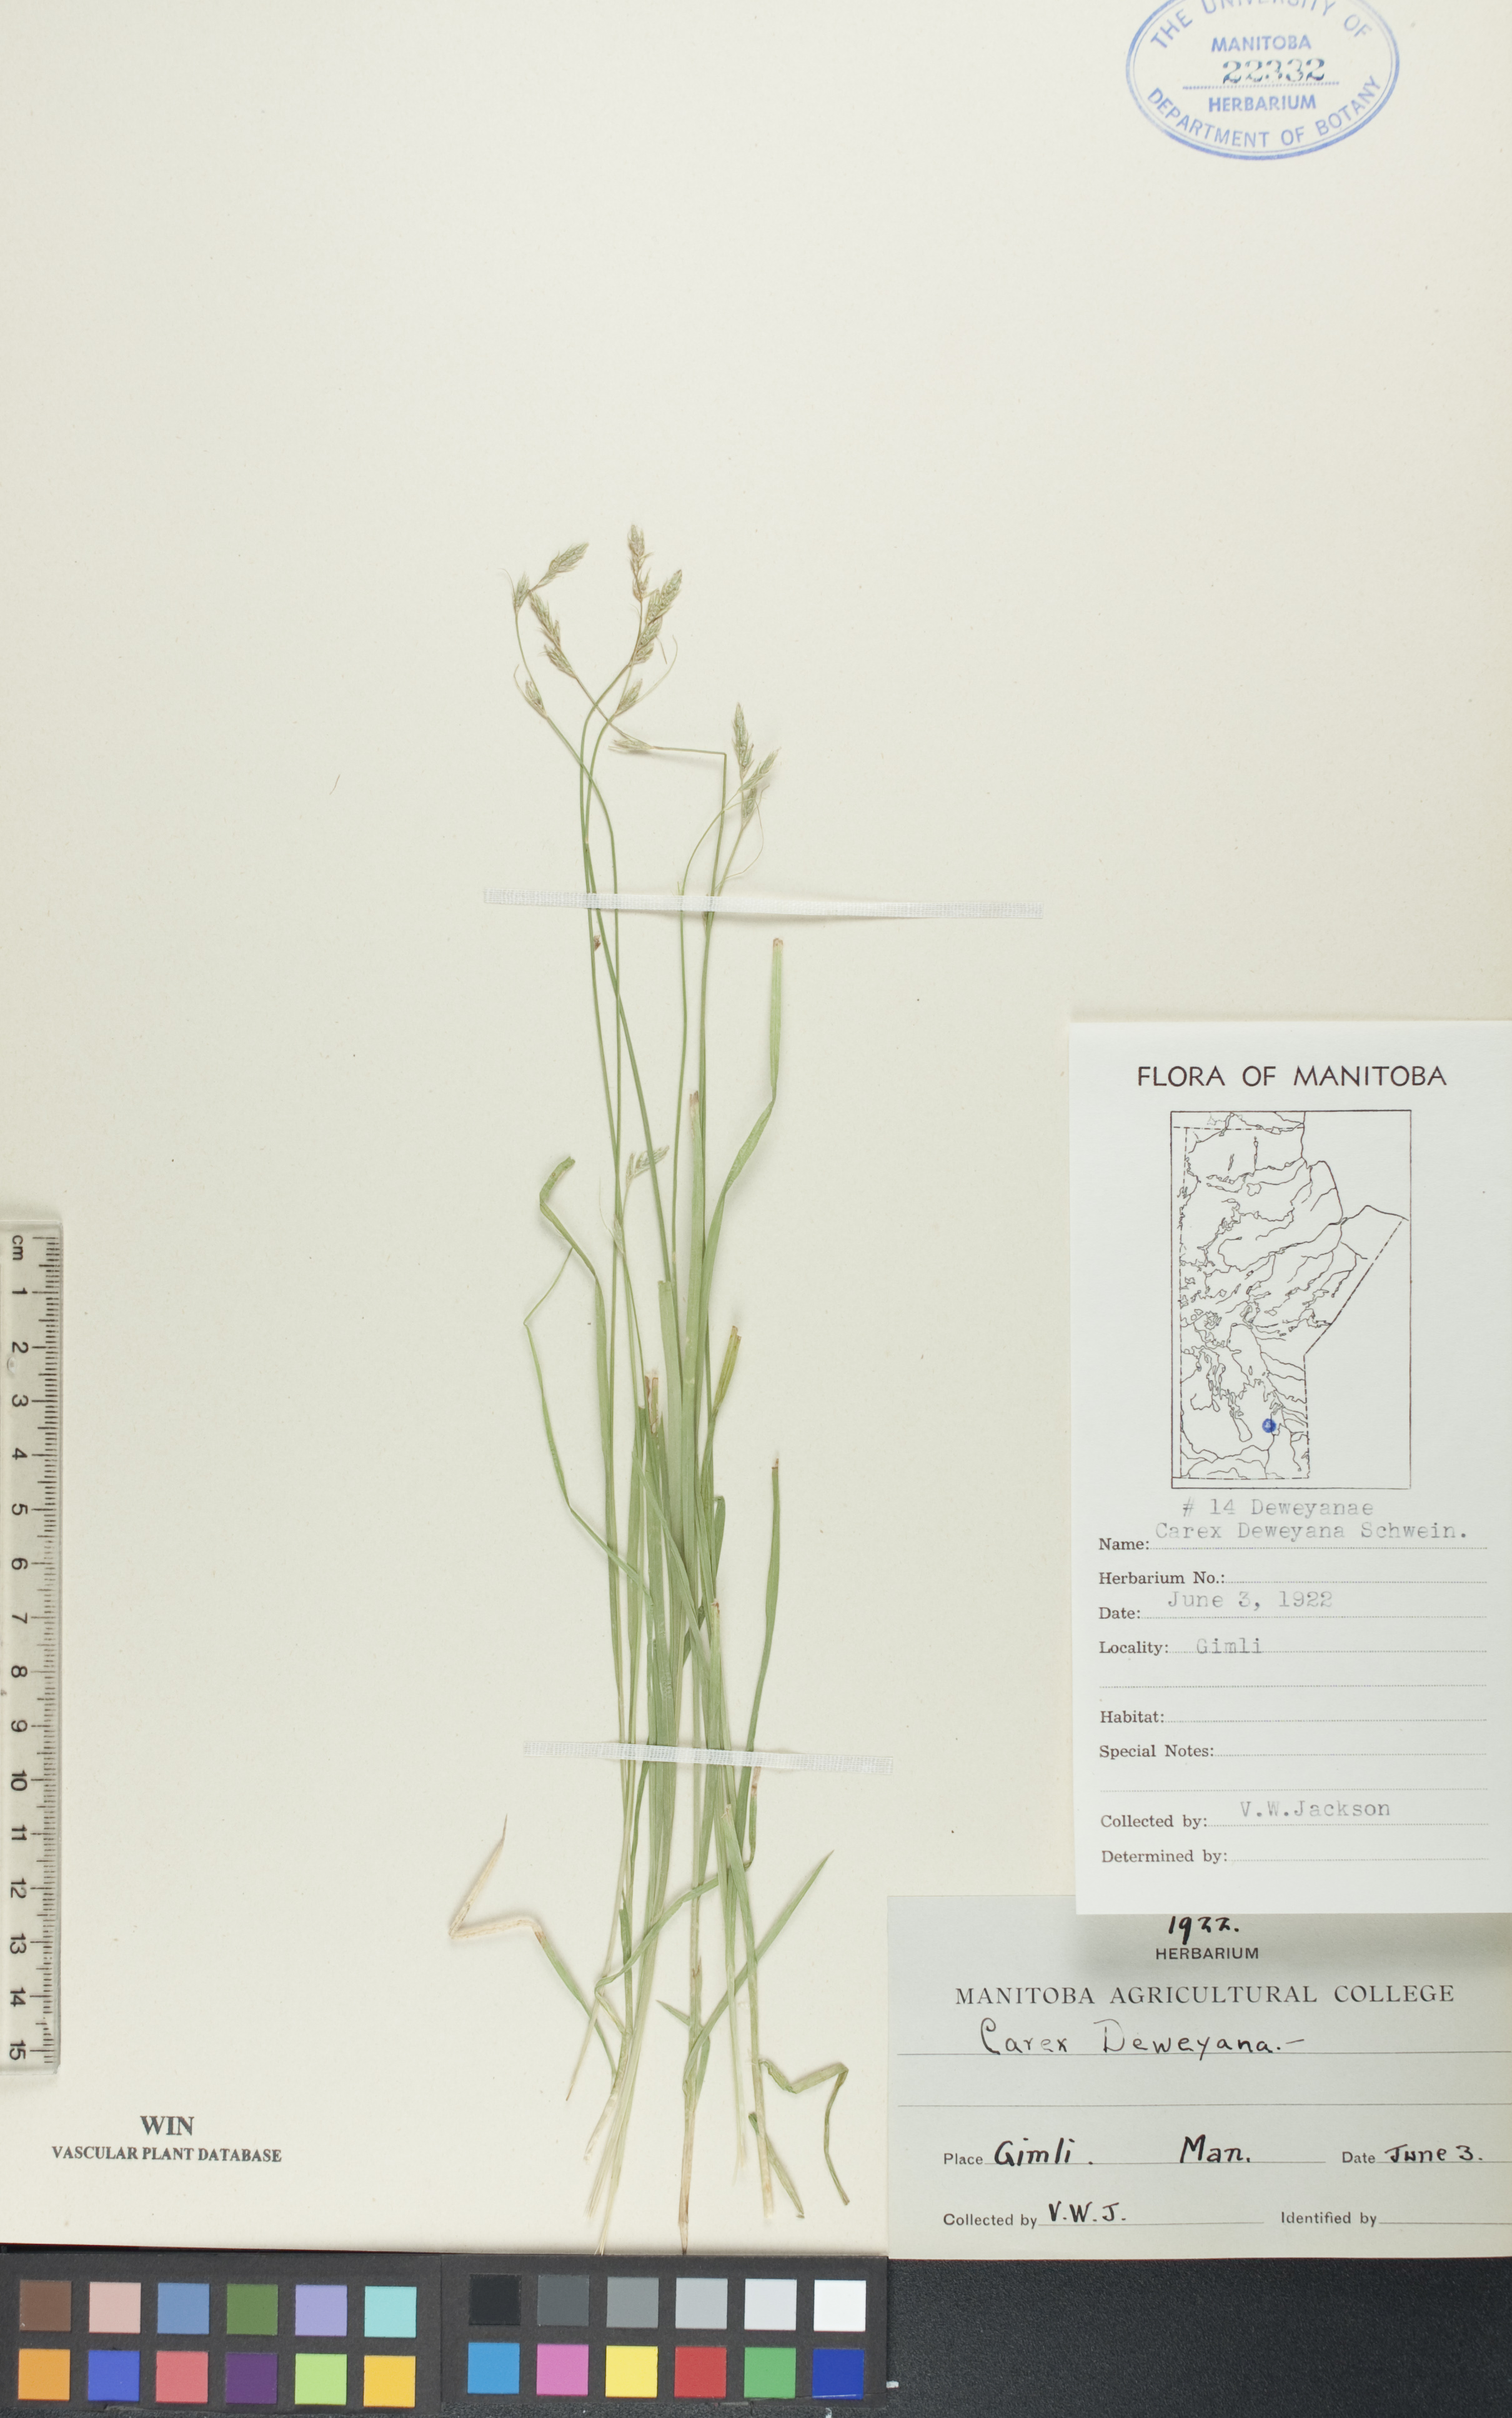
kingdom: Plantae
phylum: Tracheophyta
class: Liliopsida
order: Poales
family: Cyperaceae
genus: Carex
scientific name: Carex deweyana
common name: Dewey's sedge
